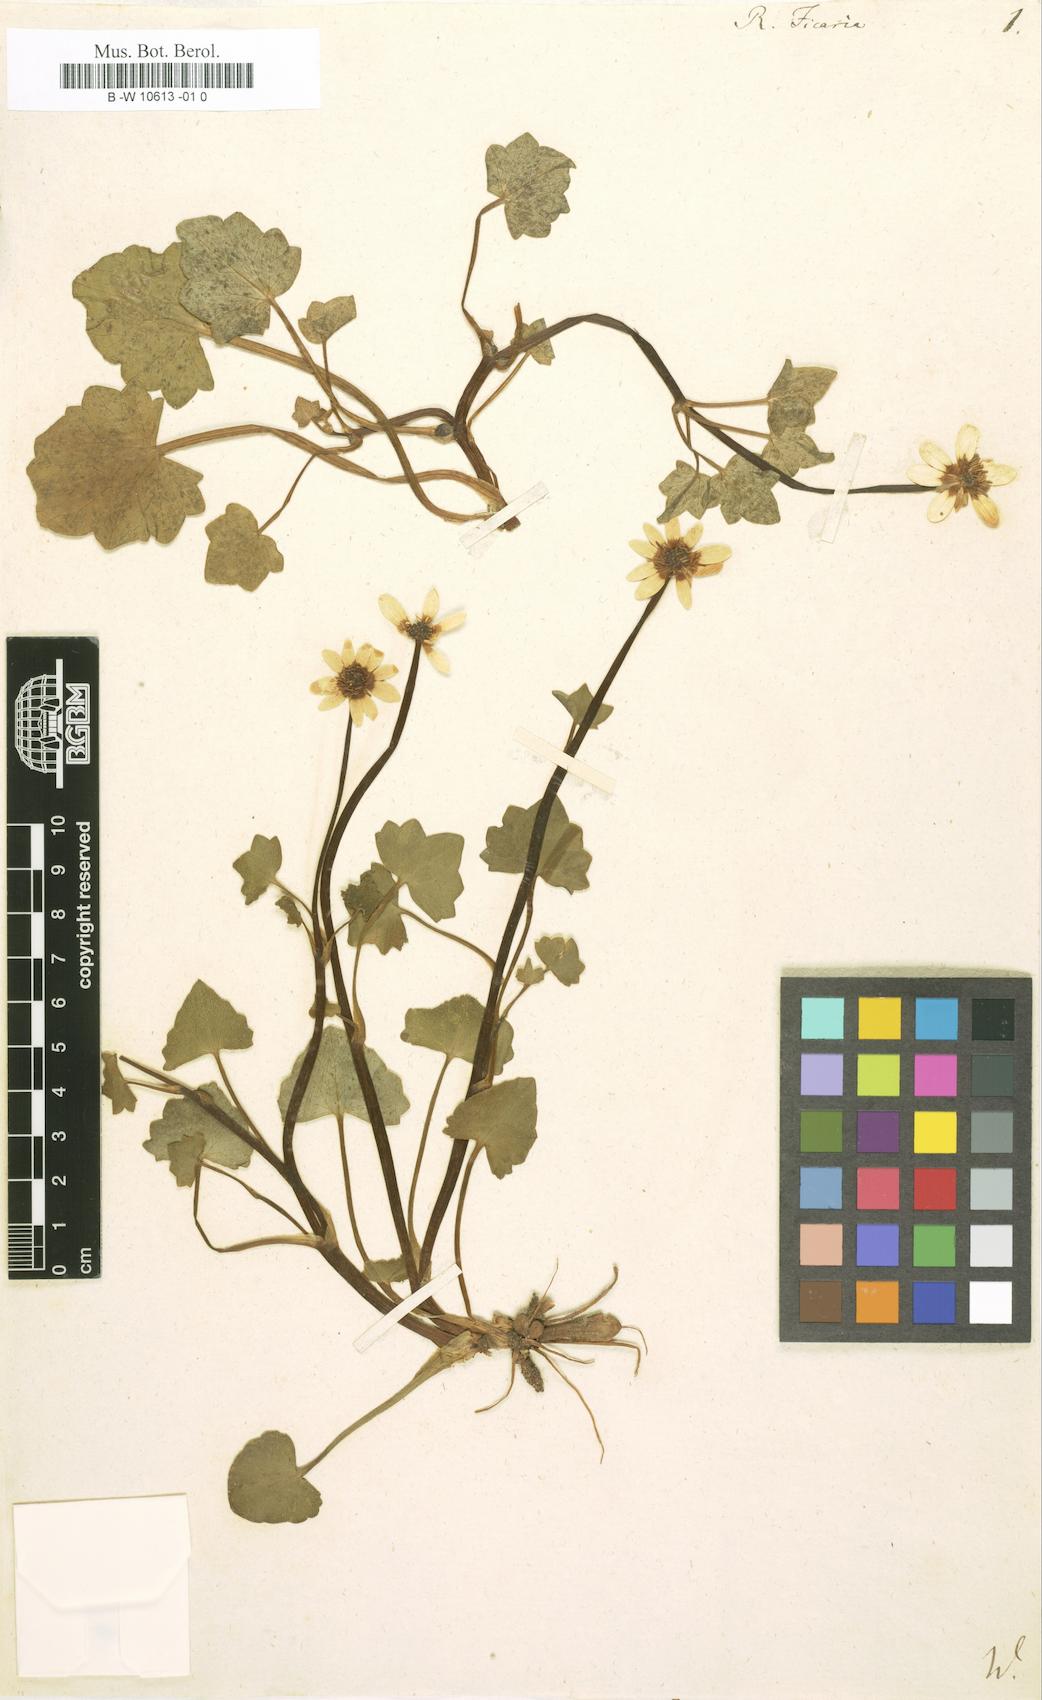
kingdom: Plantae
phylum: Tracheophyta
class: Magnoliopsida
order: Ranunculales
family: Ranunculaceae
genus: Ficaria
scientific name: Ficaria verna
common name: Lesser celandine
